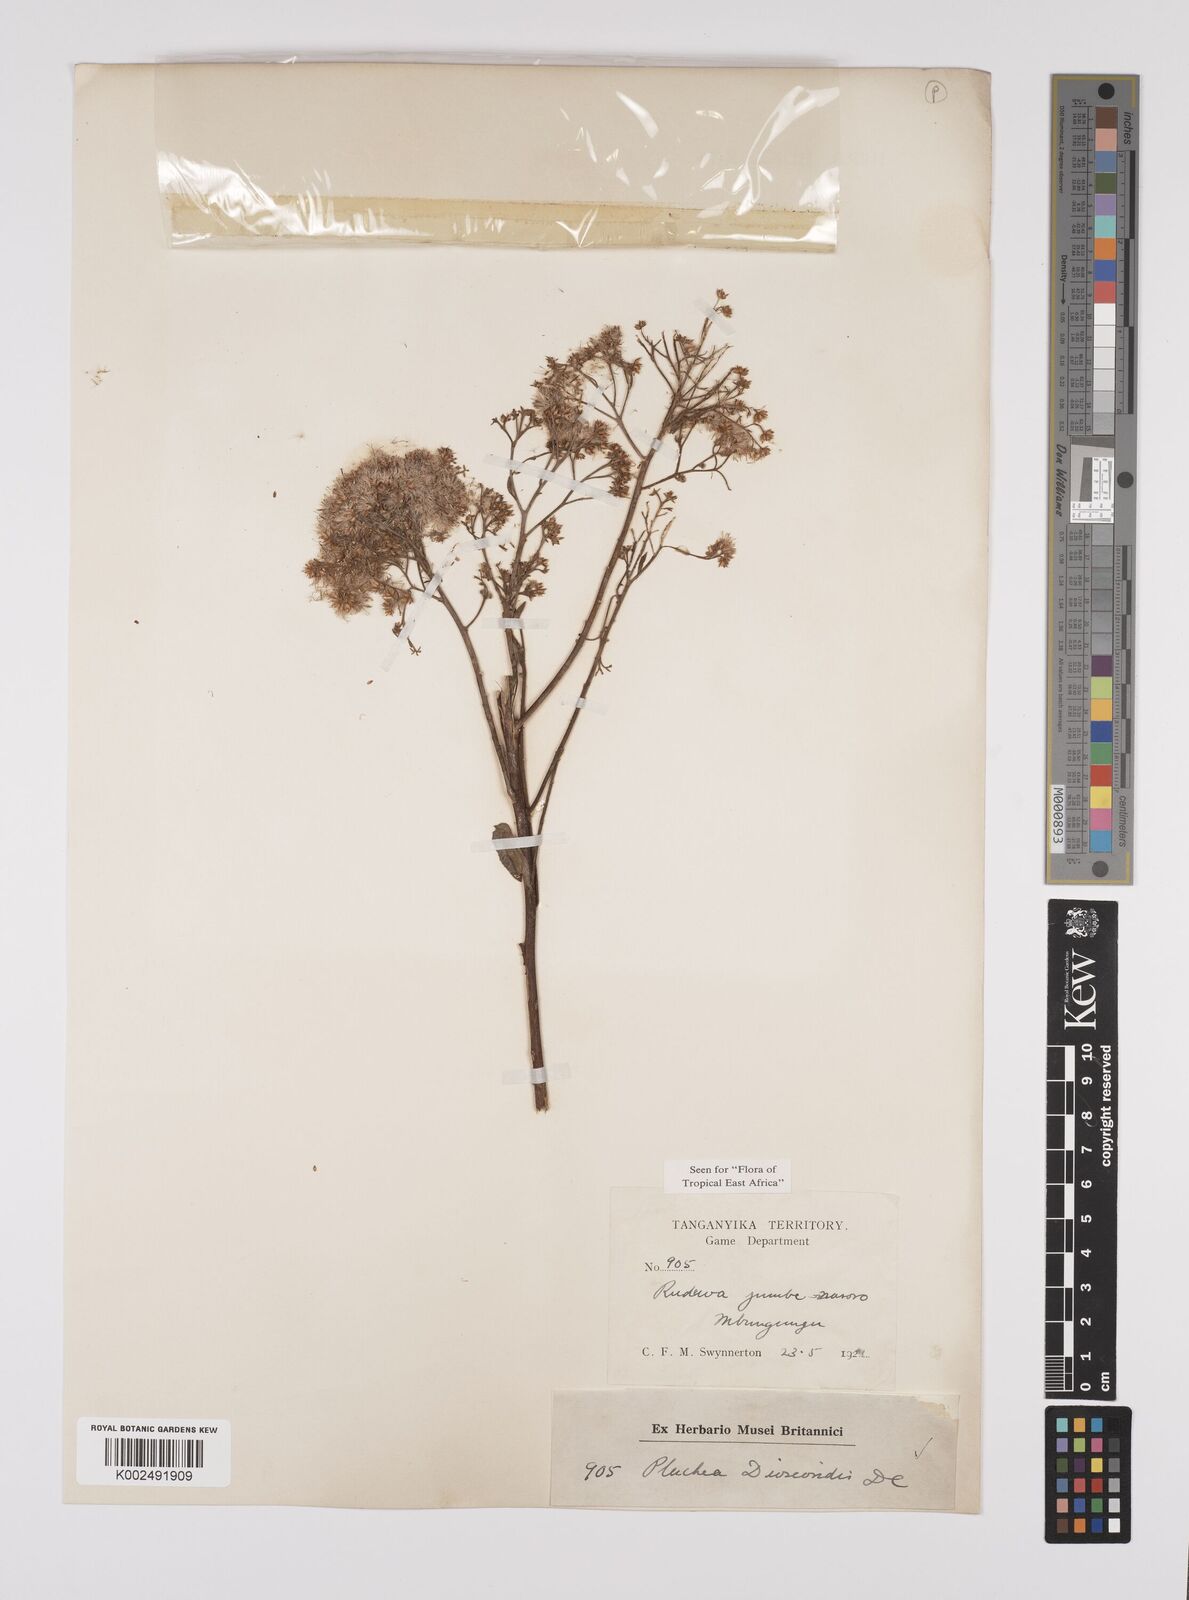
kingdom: Plantae
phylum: Tracheophyta
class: Magnoliopsida
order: Asterales
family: Asteraceae
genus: Pluchea
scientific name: Pluchea dioscoridis
